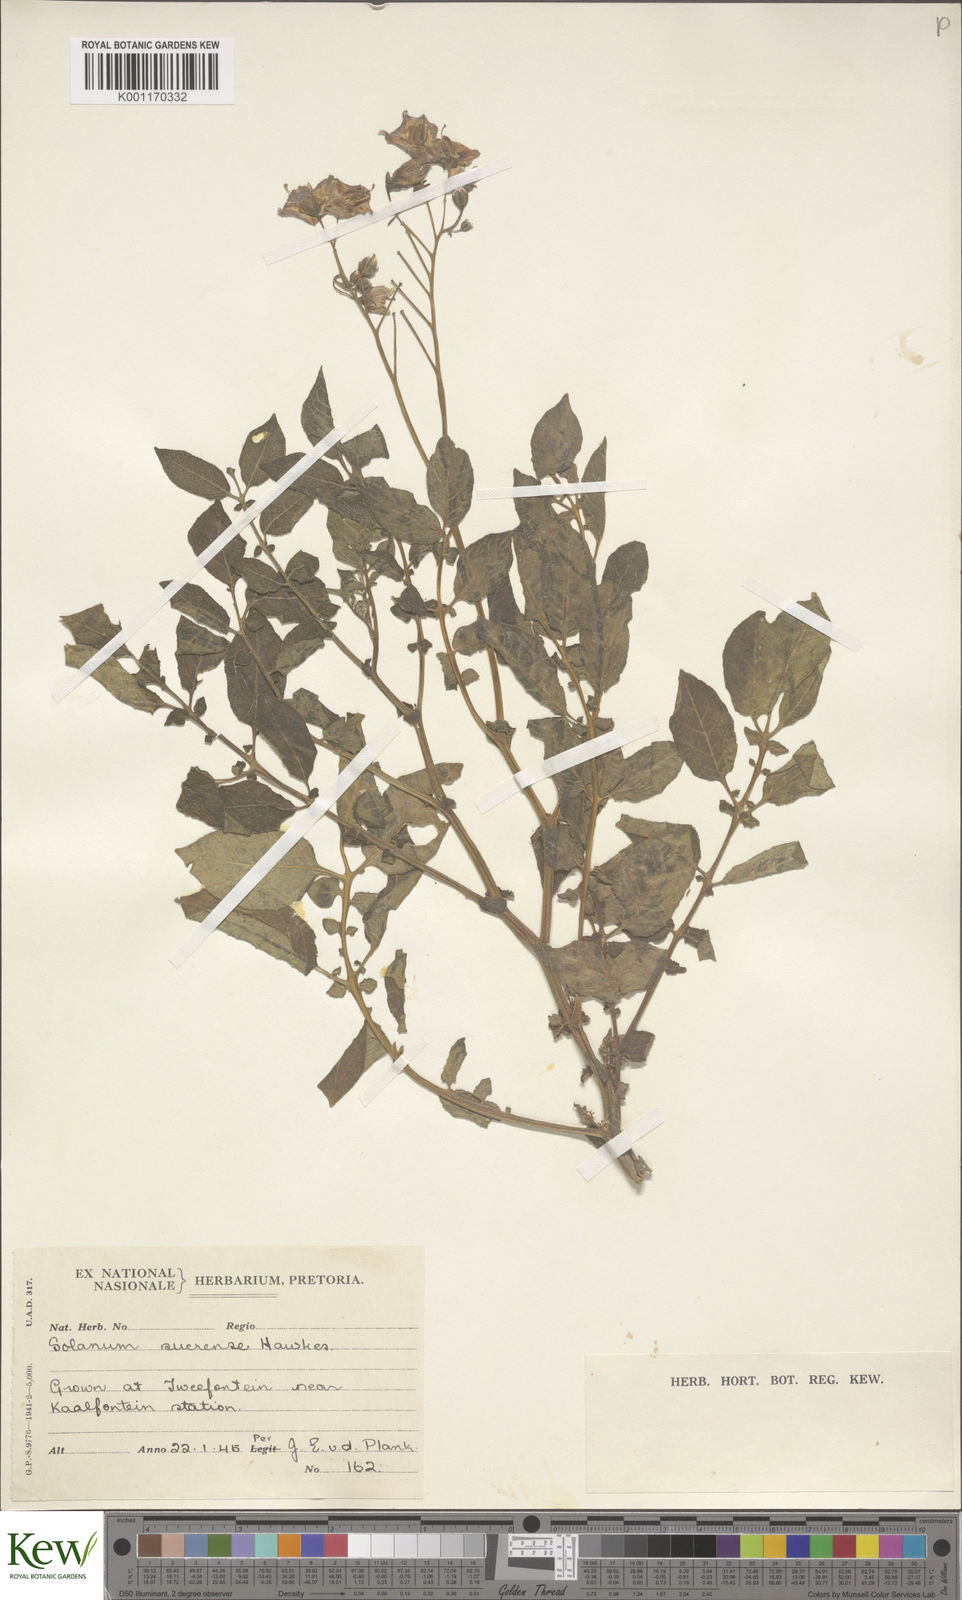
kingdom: Plantae
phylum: Tracheophyta
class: Magnoliopsida
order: Solanales
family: Solanaceae
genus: Solanum
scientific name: Solanum brevicaule
